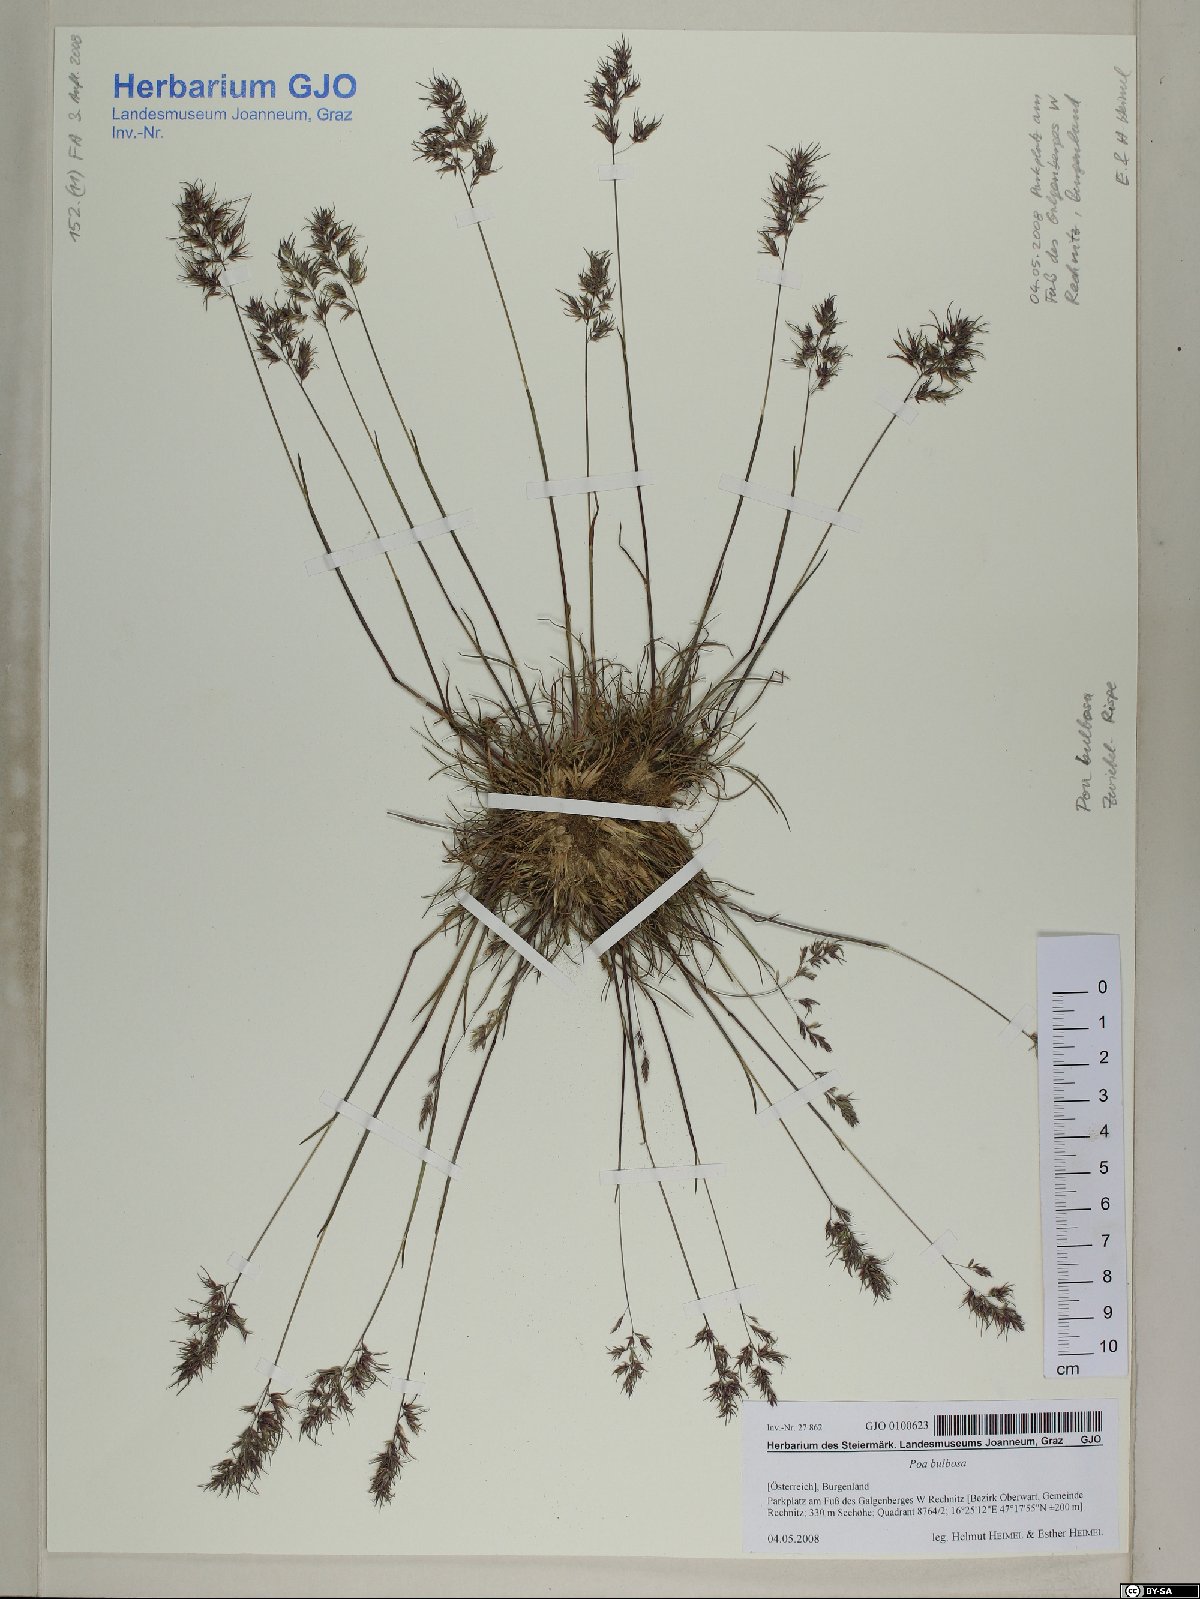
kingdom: Plantae
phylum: Tracheophyta
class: Liliopsida
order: Poales
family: Poaceae
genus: Poa
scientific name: Poa bulbosa
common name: Bulbous bluegrass
